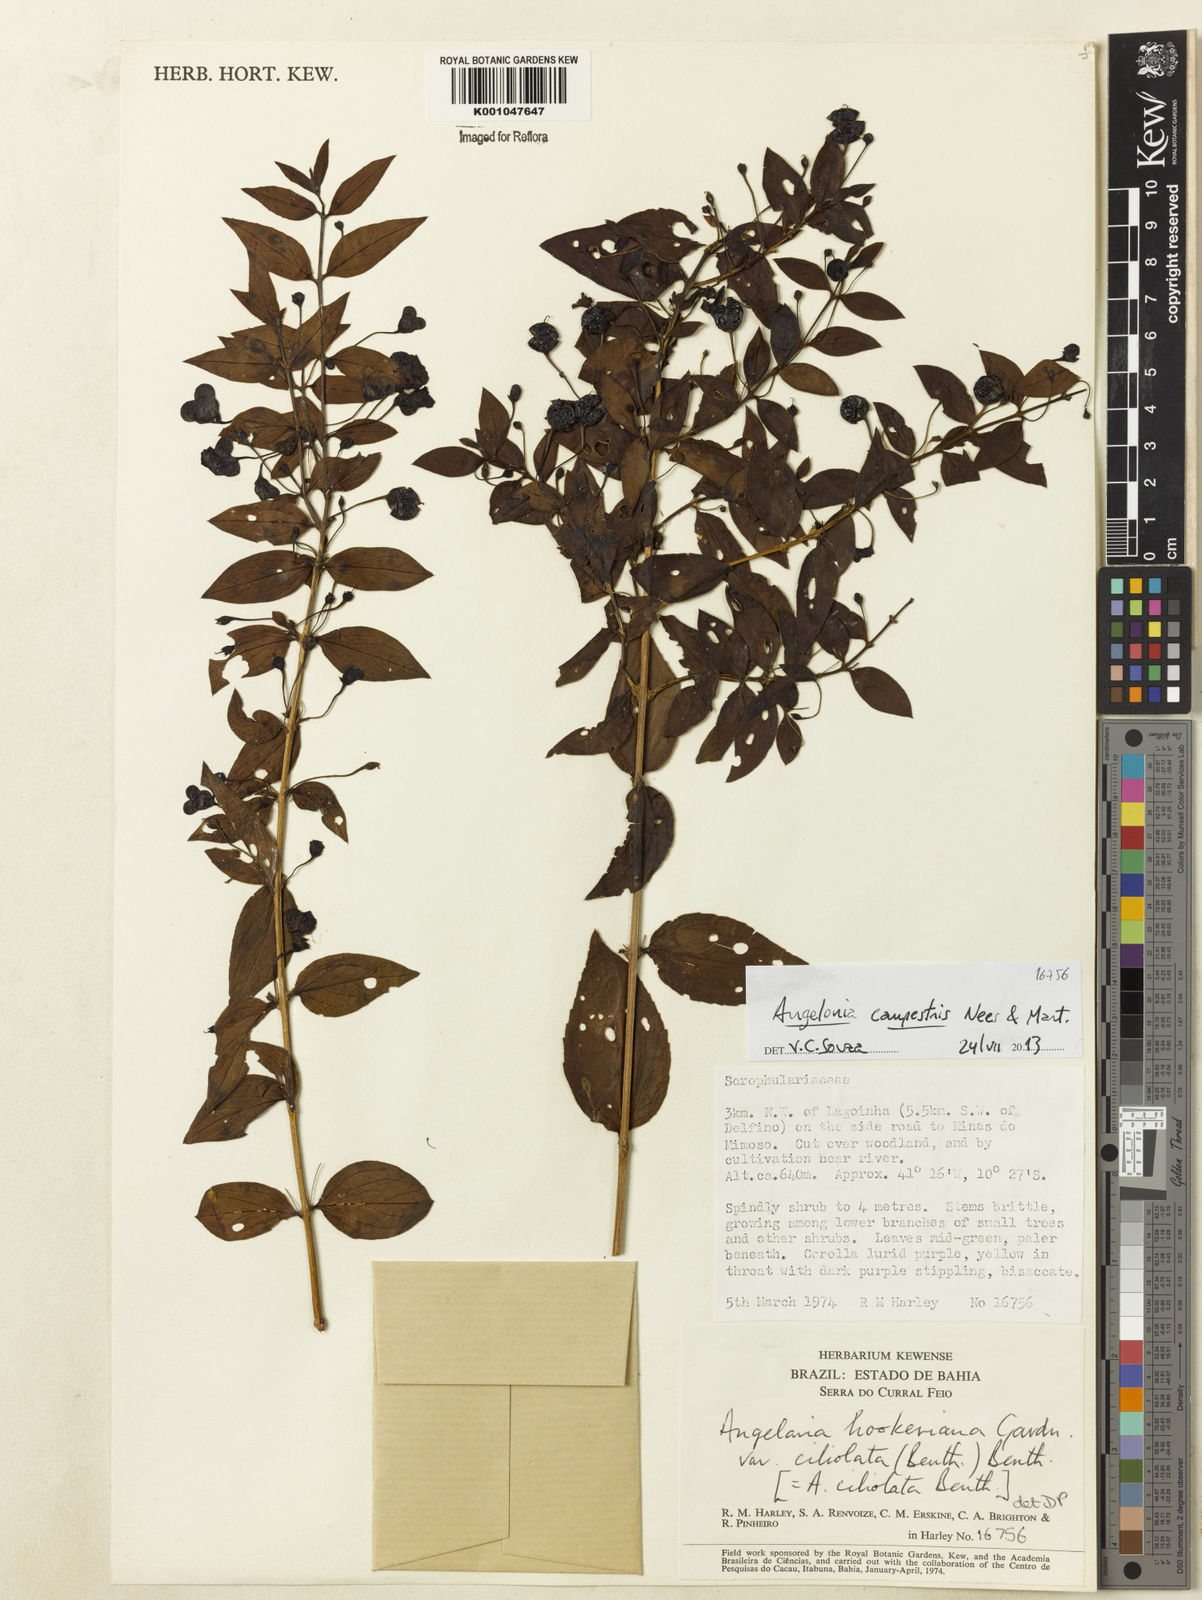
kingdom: Plantae
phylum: Tracheophyta
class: Magnoliopsida
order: Lamiales
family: Plantaginaceae
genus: Angelonia
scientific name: Angelonia campestris
